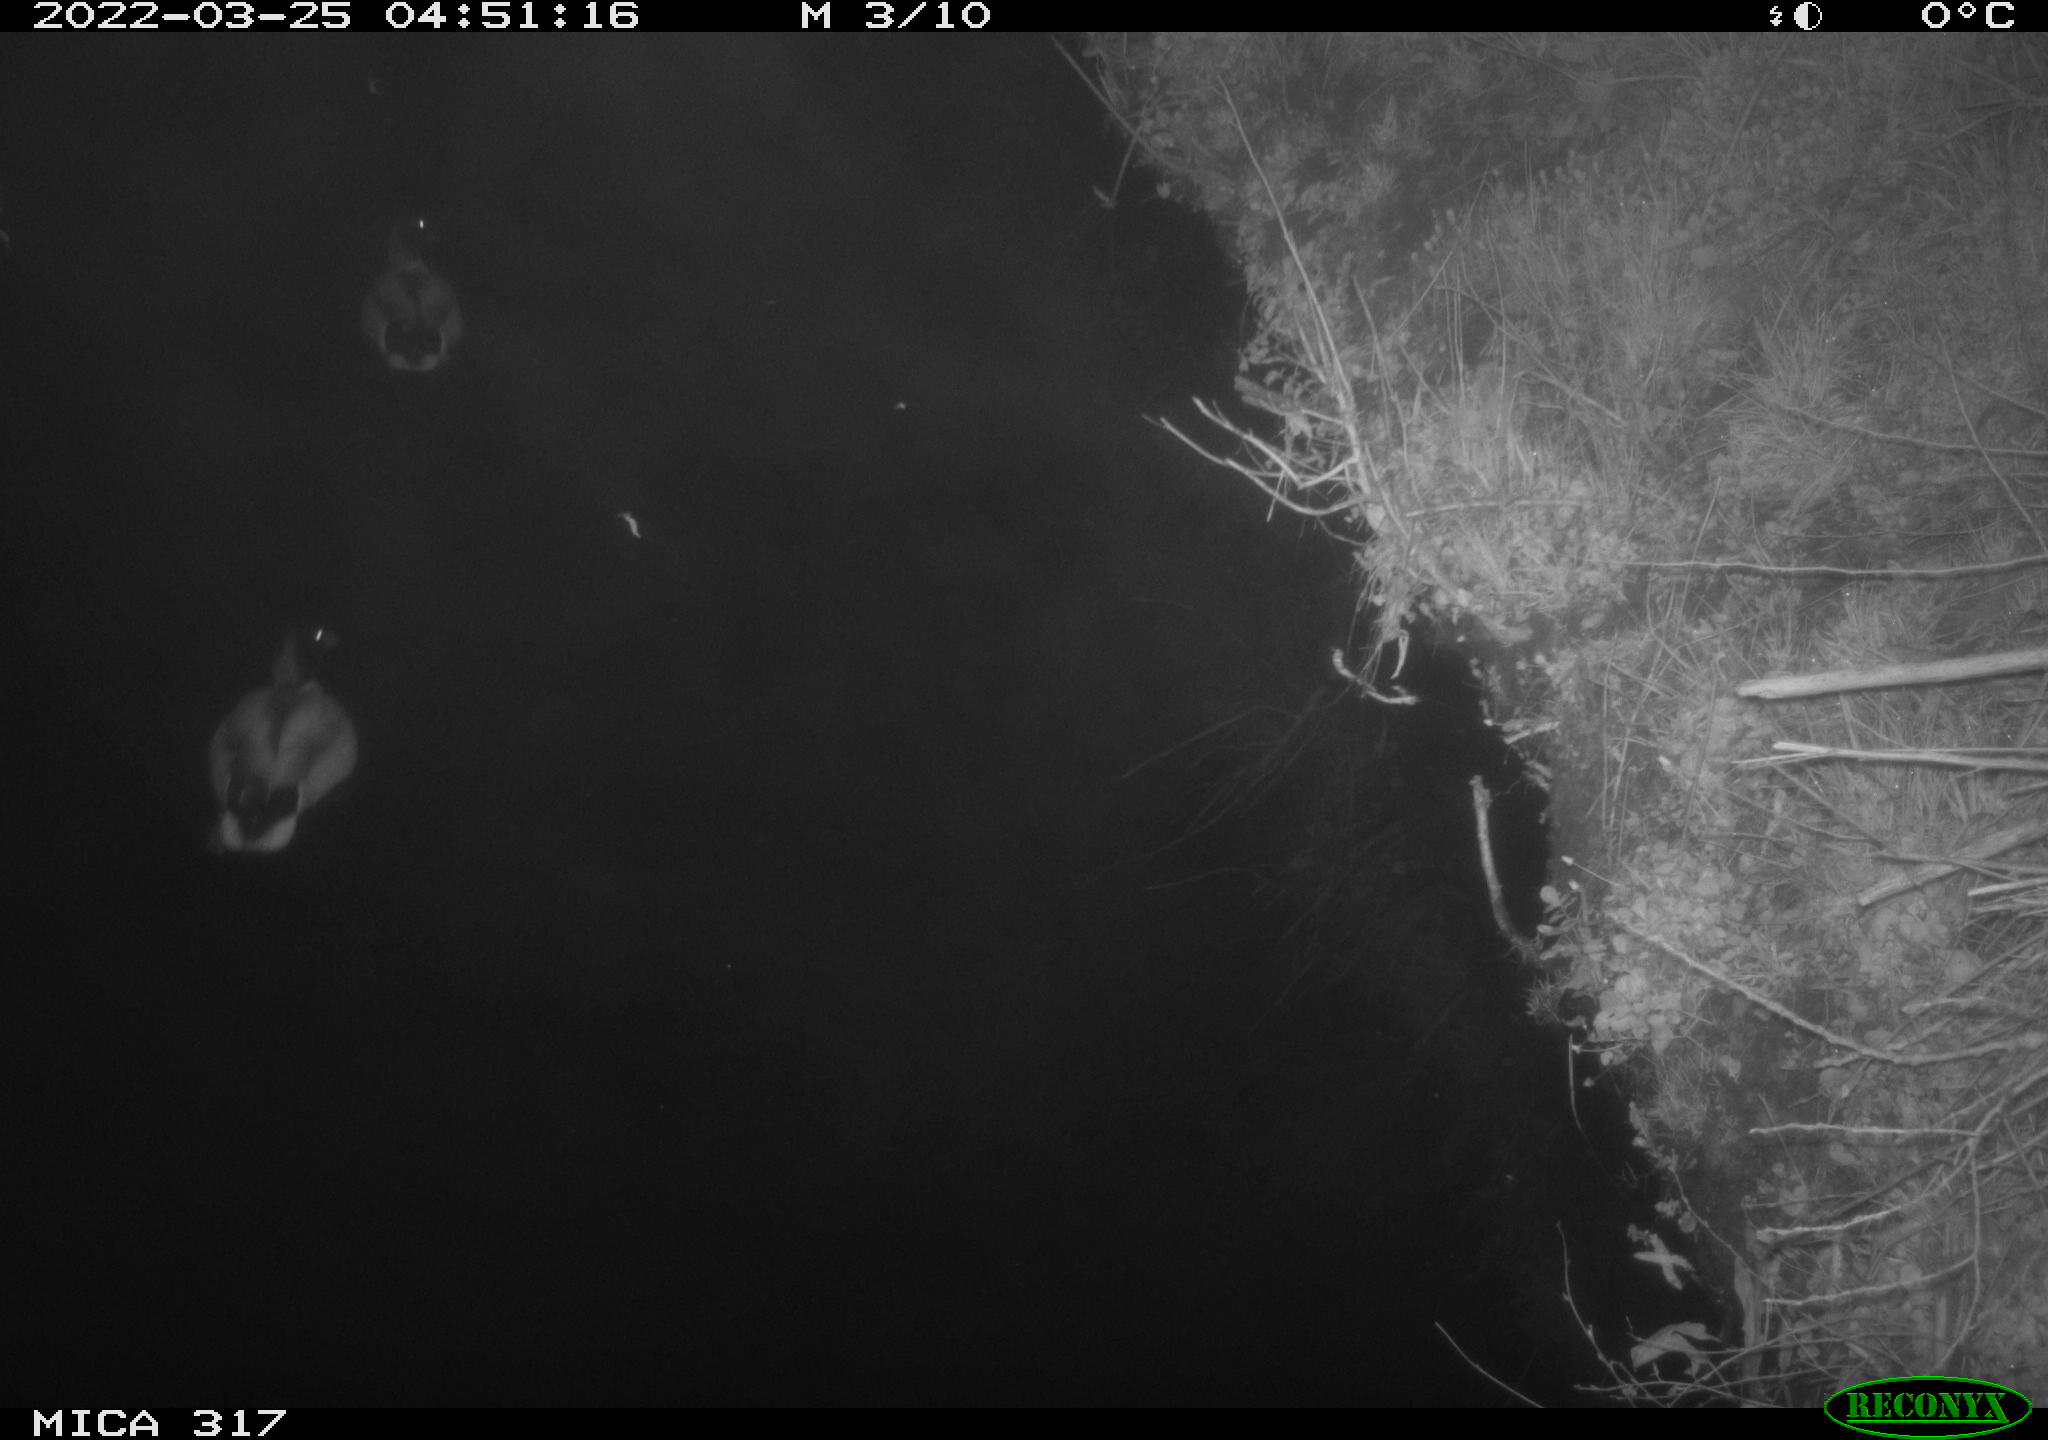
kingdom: Animalia
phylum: Chordata
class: Aves
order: Anseriformes
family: Anatidae
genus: Anas
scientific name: Anas platyrhynchos
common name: Mallard
